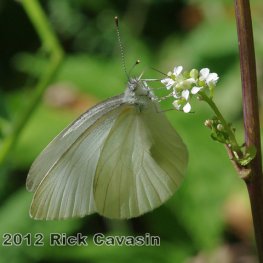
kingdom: Animalia
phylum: Arthropoda
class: Insecta
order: Lepidoptera
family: Pieridae
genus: Pieris
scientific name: Pieris oleracea
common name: Mustard White
